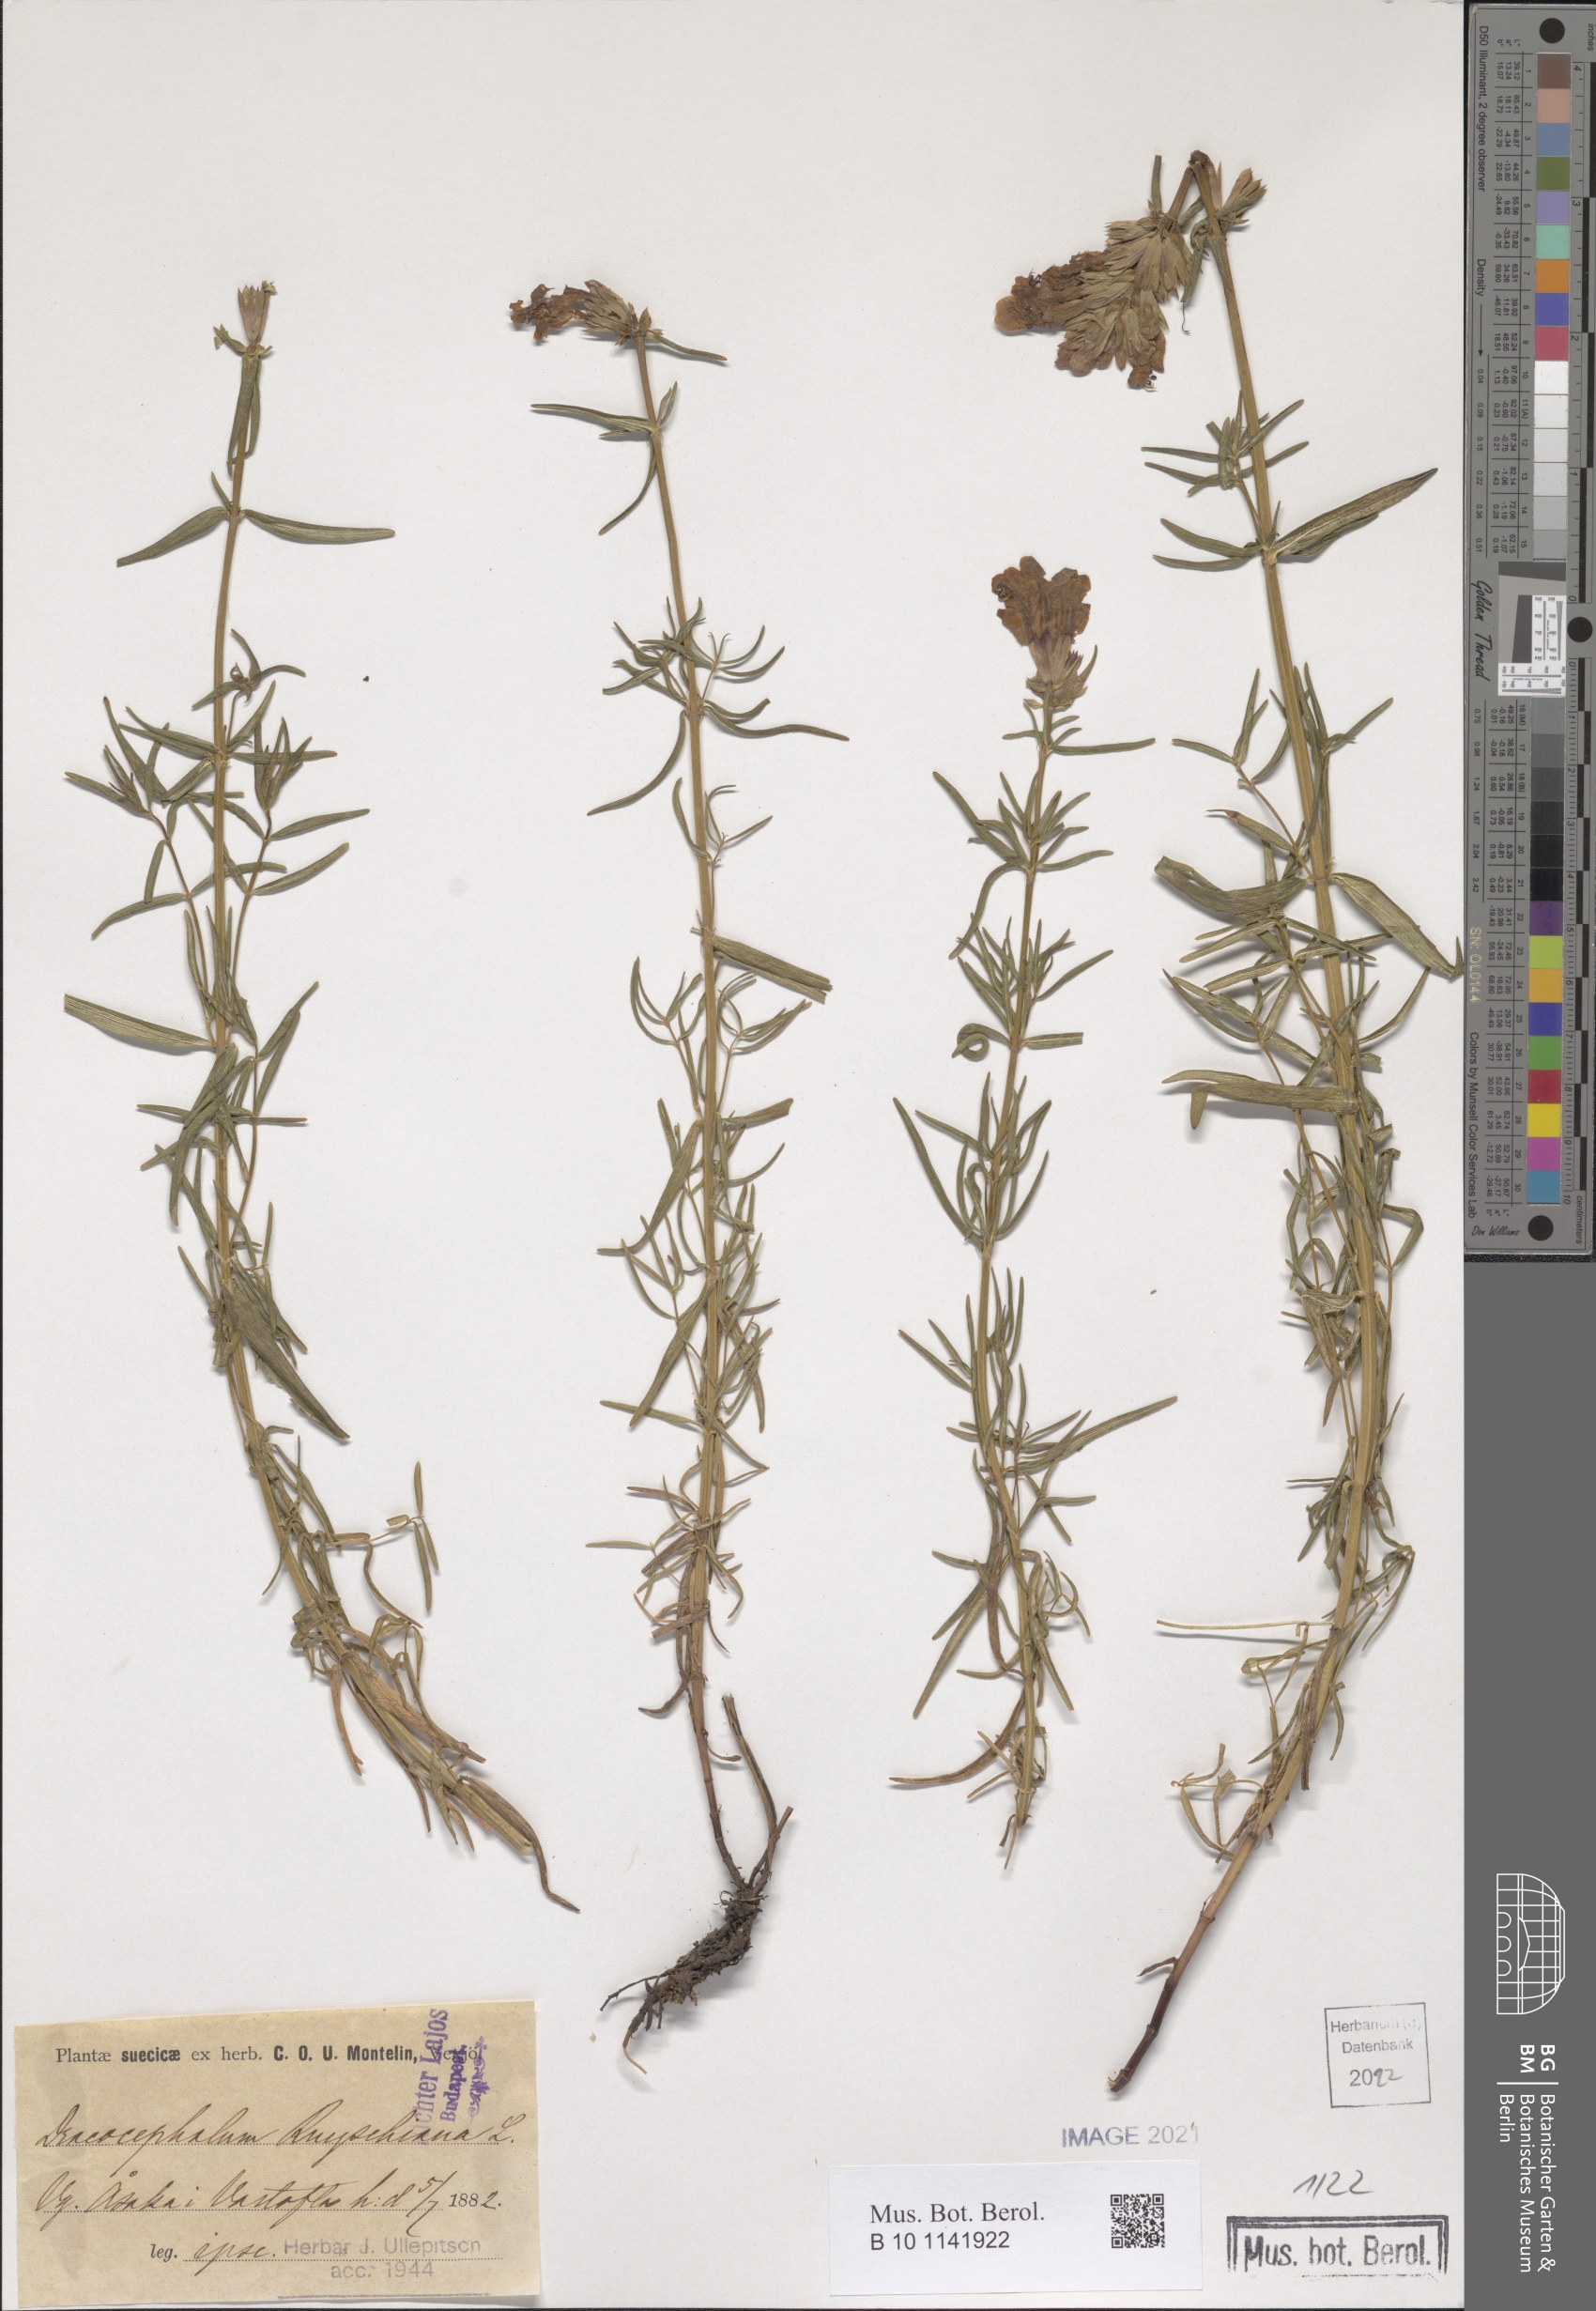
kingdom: Plantae
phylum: Tracheophyta
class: Magnoliopsida
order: Lamiales
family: Lamiaceae
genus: Dracocephalum
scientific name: Dracocephalum ruyschiana
